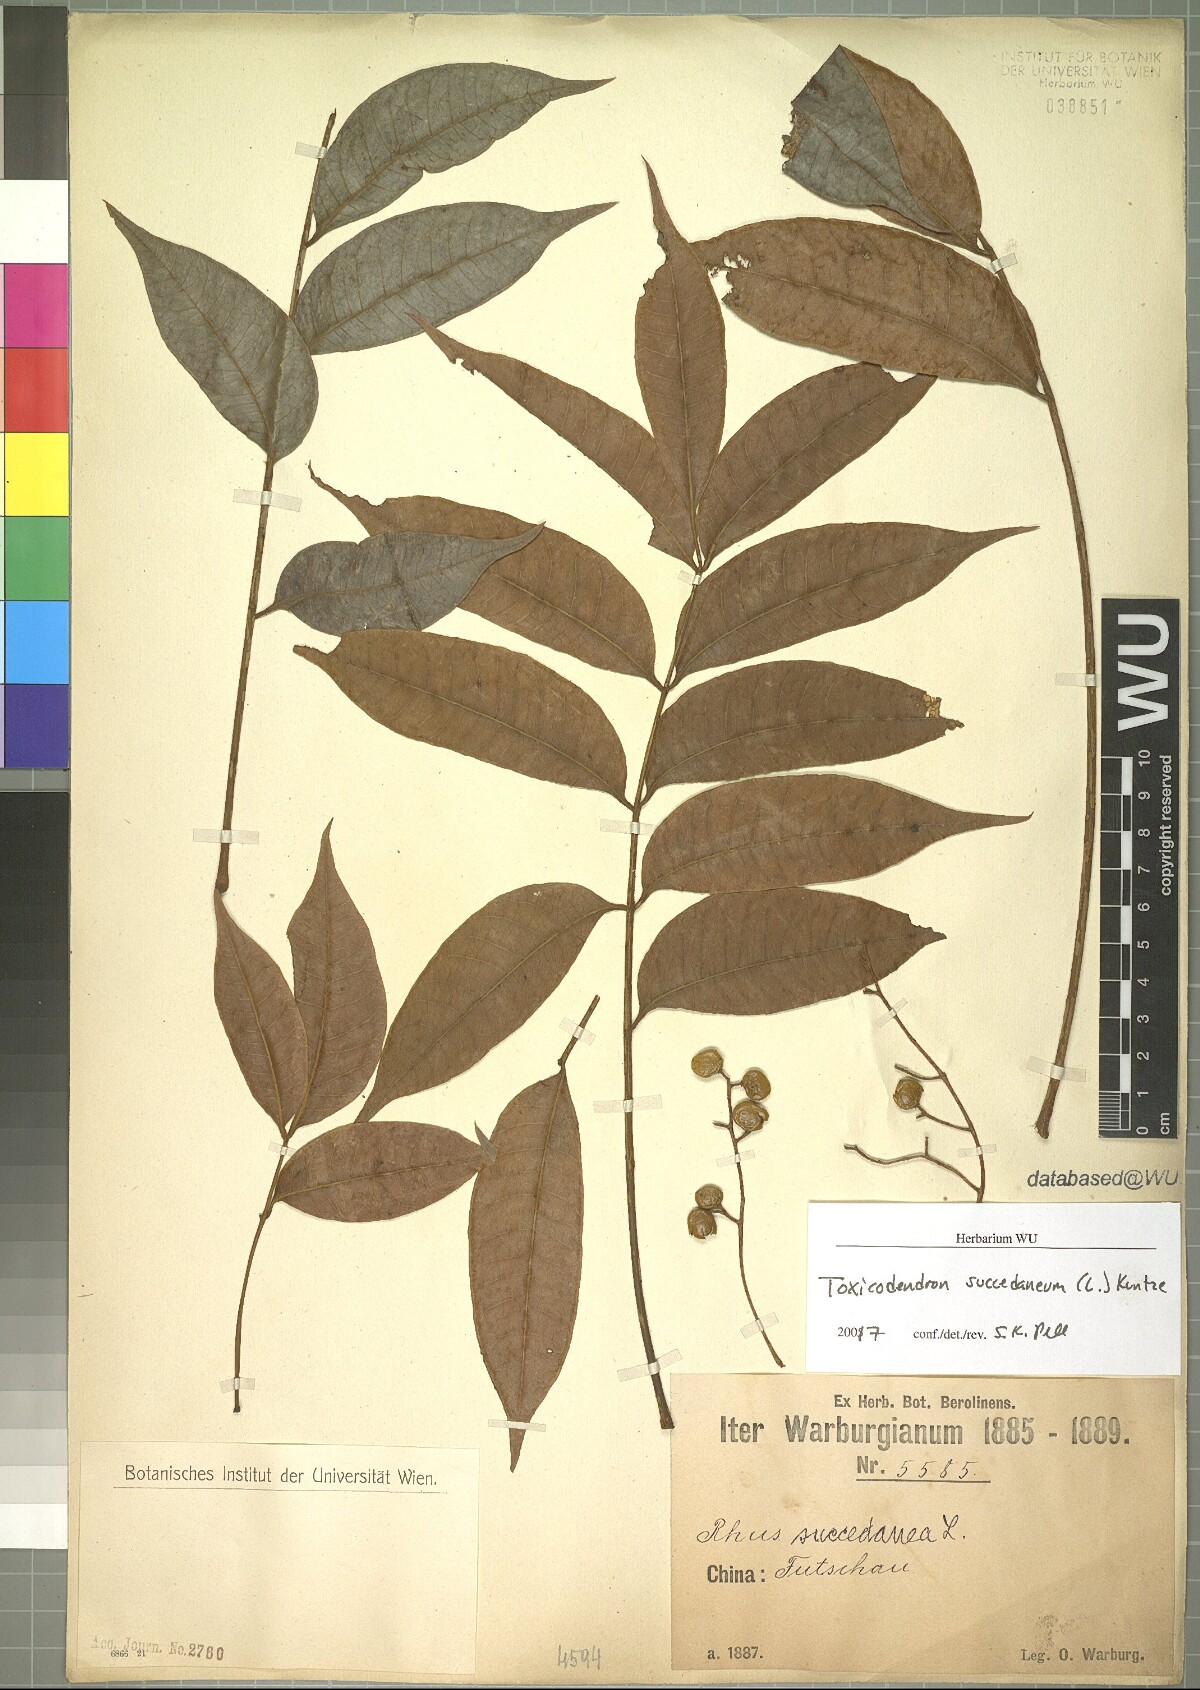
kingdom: Plantae
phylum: Tracheophyta
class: Magnoliopsida
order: Sapindales
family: Anacardiaceae
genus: Toxicodendron
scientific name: Toxicodendron succedaneum
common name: Wax tree
